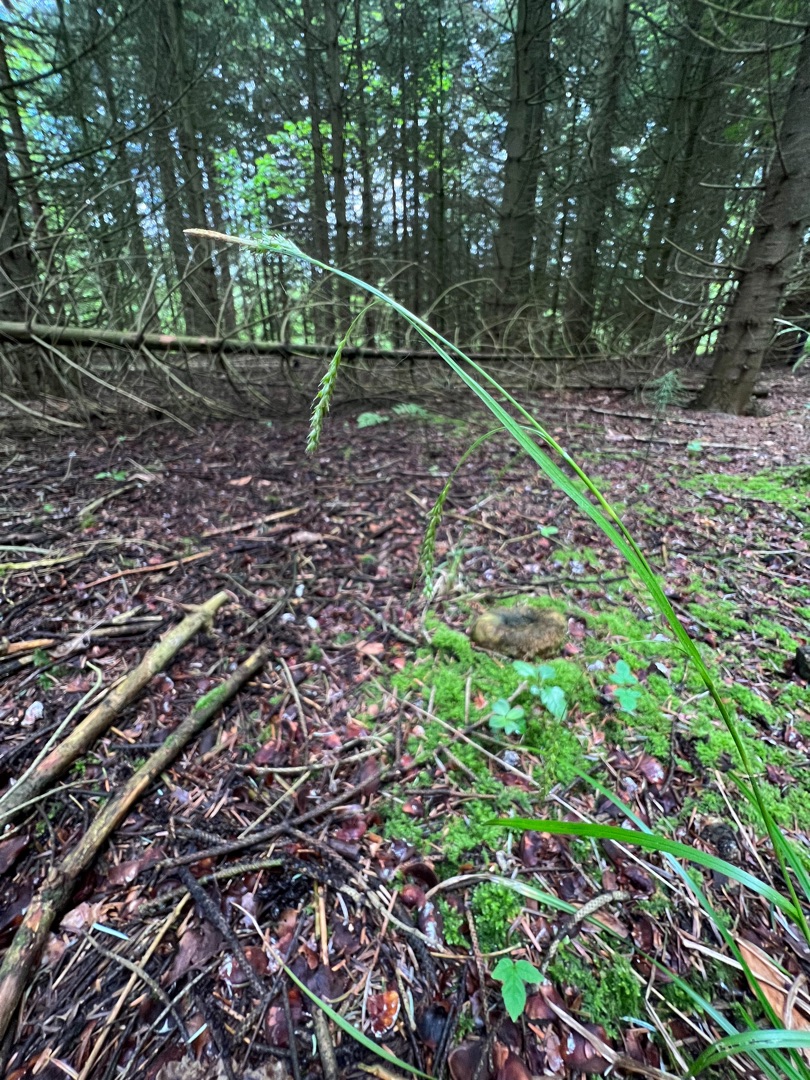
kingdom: Plantae
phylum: Tracheophyta
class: Liliopsida
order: Poales
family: Cyperaceae
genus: Carex
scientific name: Carex sylvatica
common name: Skov-star
